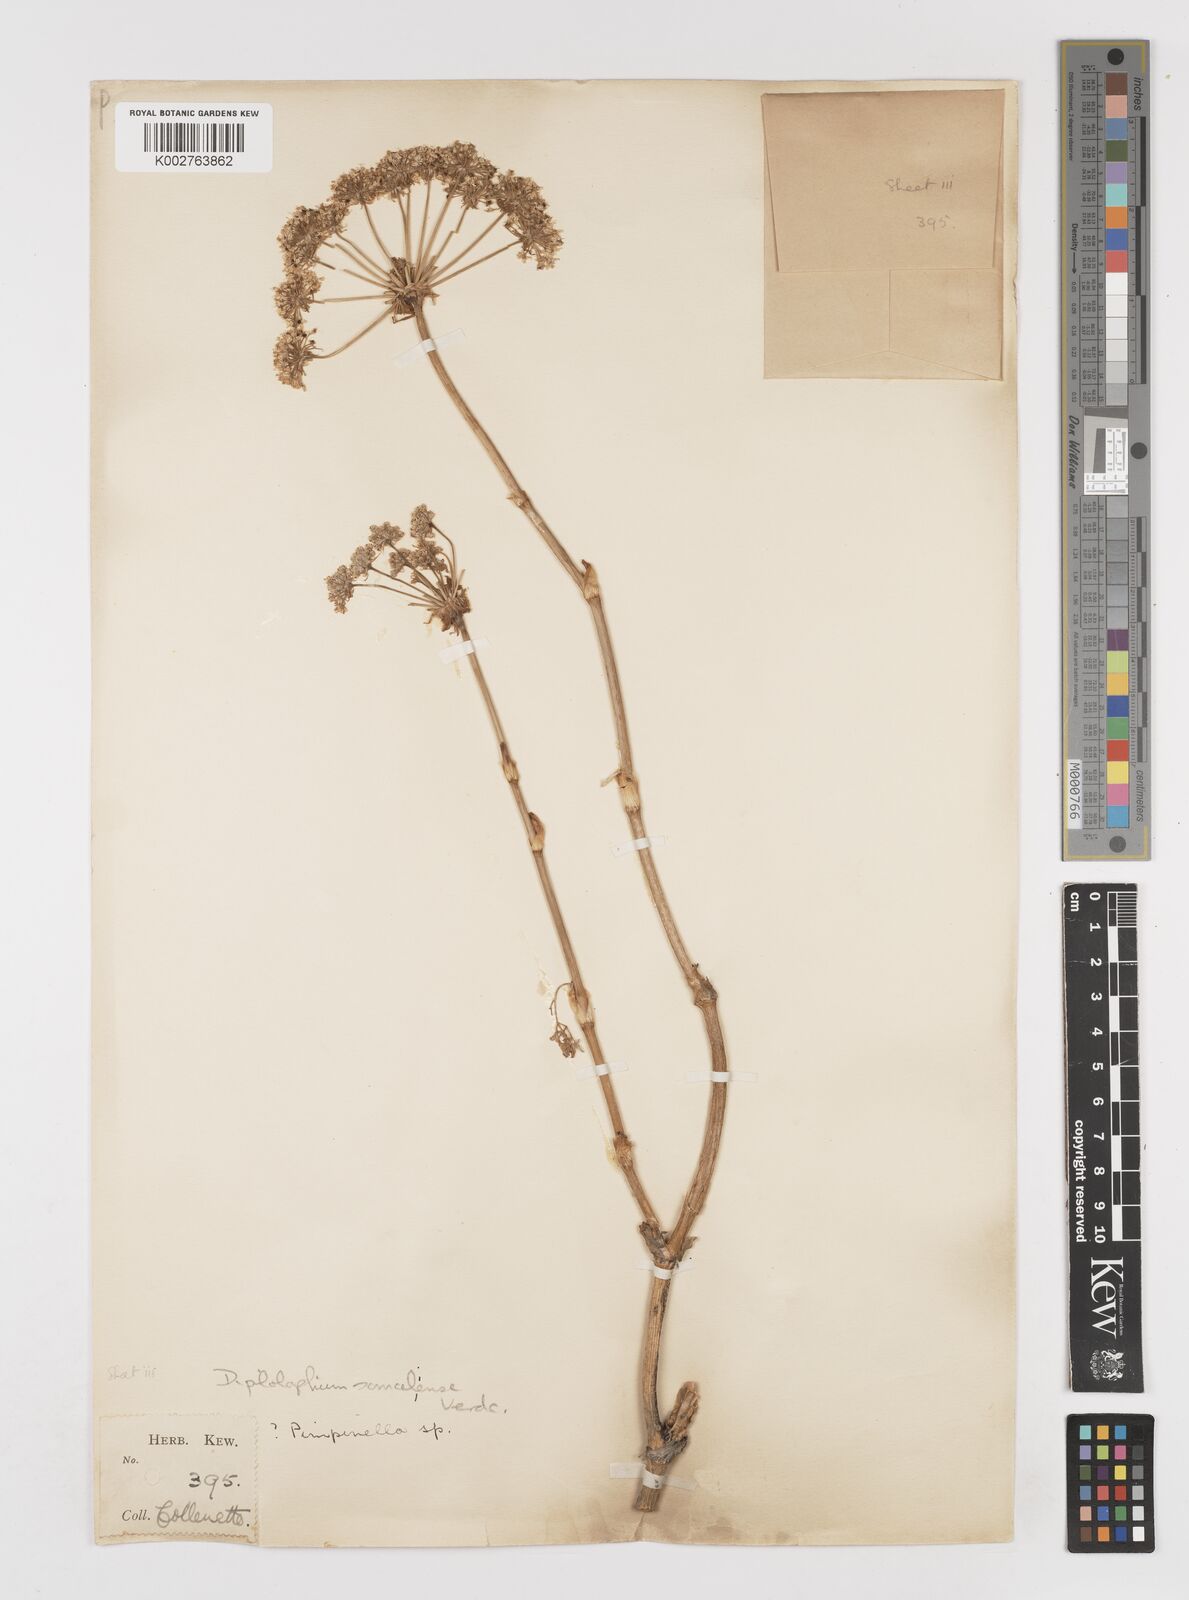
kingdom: Plantae
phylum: Tracheophyta
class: Magnoliopsida
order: Apiales
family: Apiaceae
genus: Diplolophium
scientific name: Diplolophium somaliense
